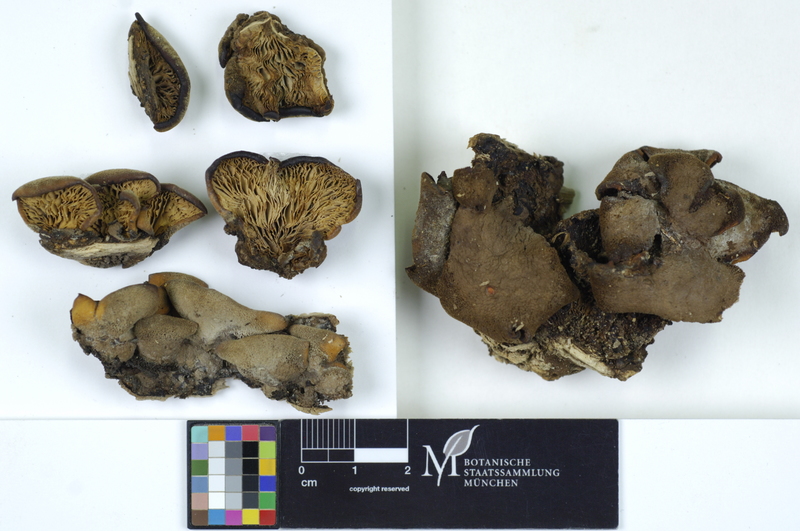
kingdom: Plantae
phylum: Tracheophyta
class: Magnoliopsida
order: Fagales
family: Fagaceae
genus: Fagus
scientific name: Fagus sylvatica
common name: Beech
